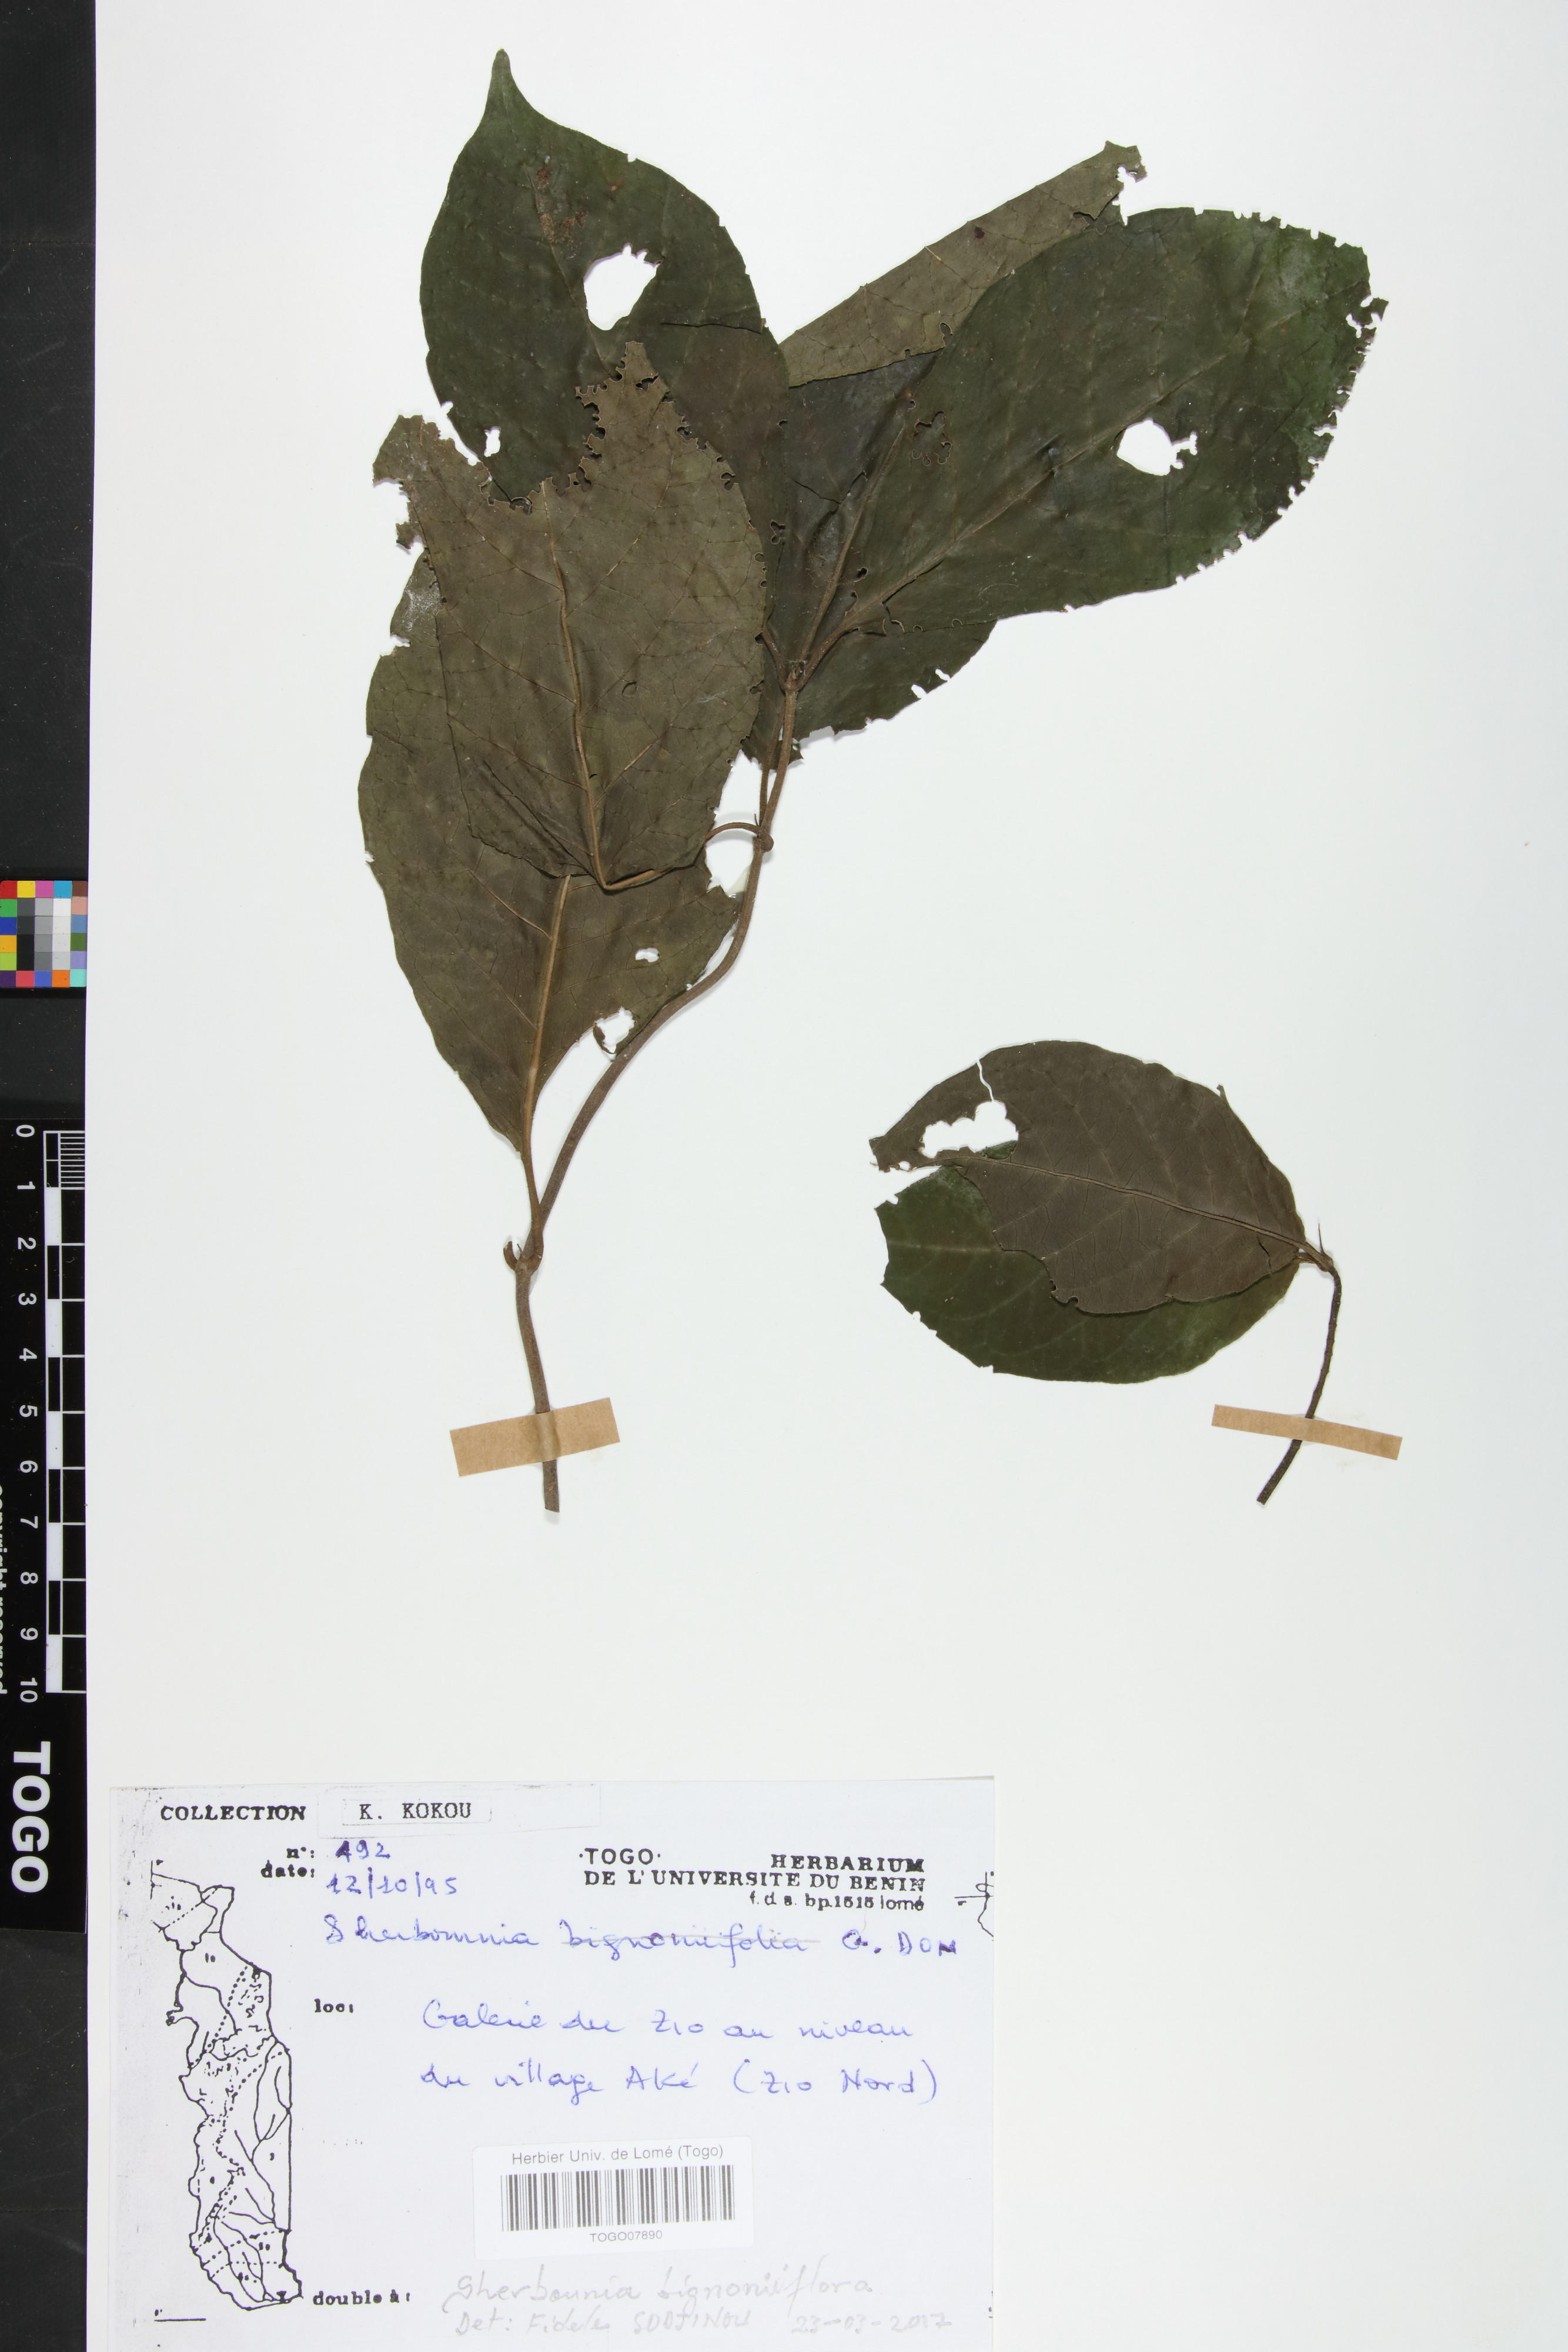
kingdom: Plantae
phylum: Tracheophyta
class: Magnoliopsida
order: Gentianales
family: Rubiaceae
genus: Sherbournia
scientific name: Sherbournia bignoniiflora
